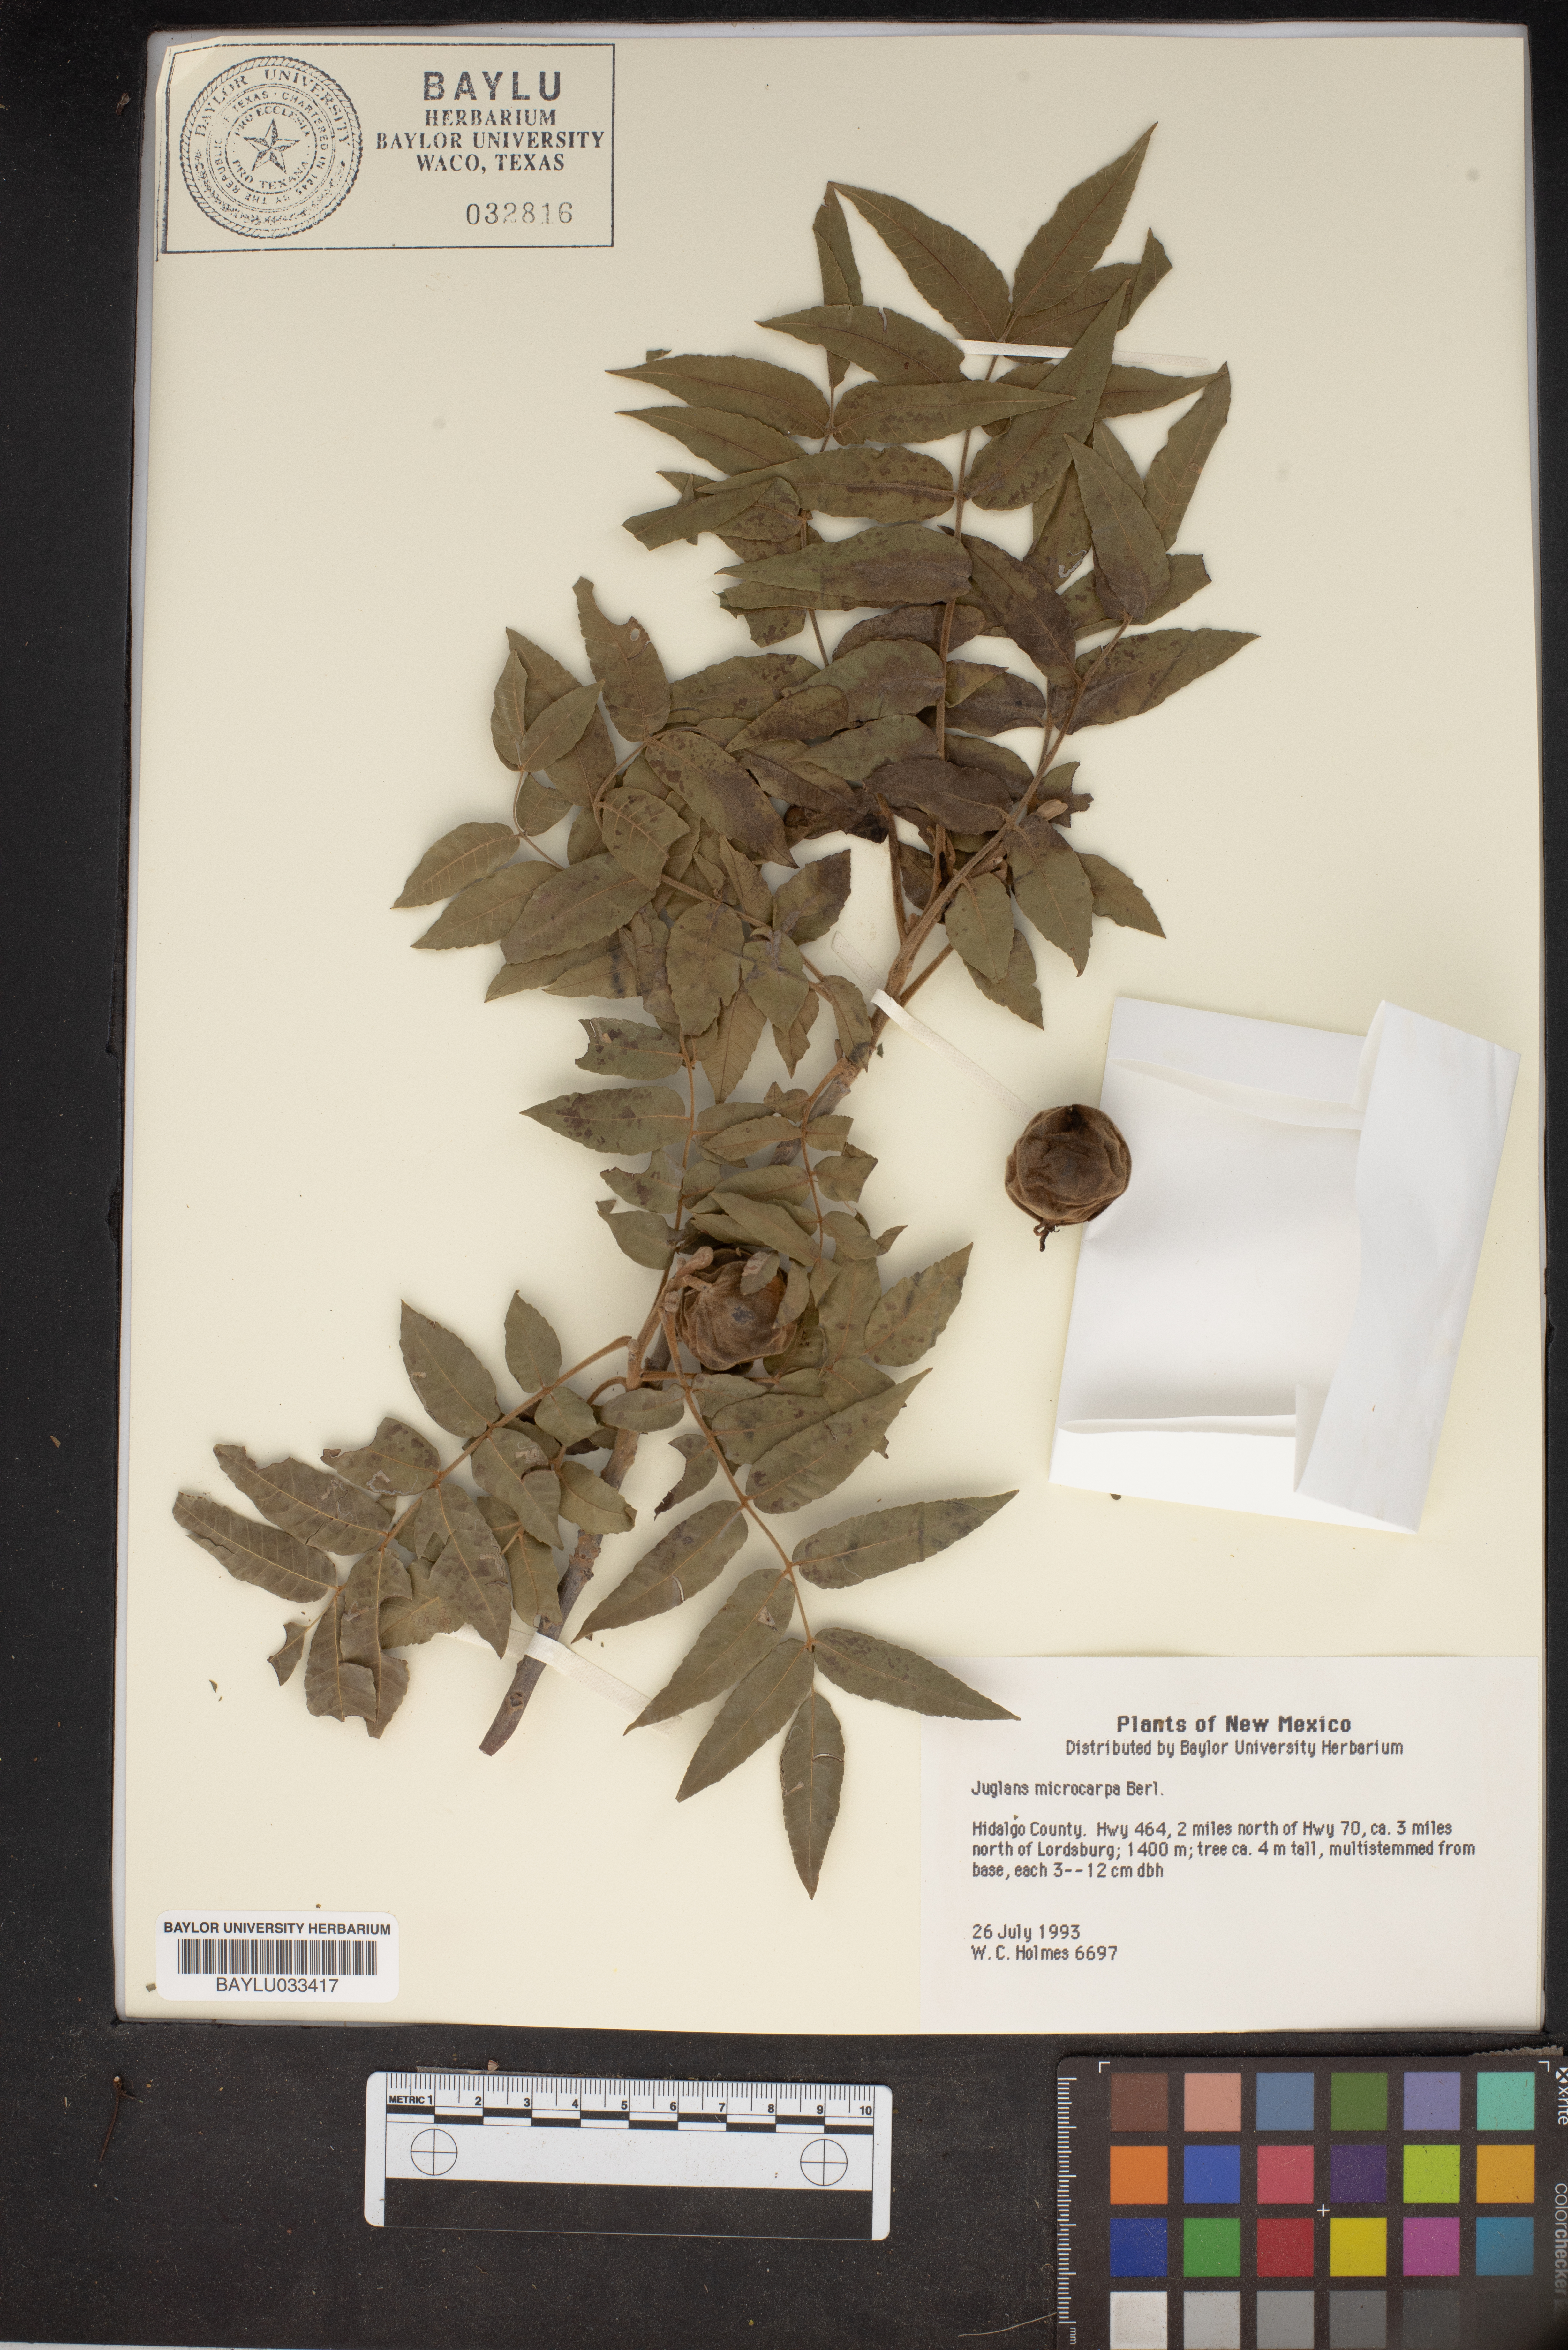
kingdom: Plantae
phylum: Tracheophyta
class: Magnoliopsida
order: Fagales
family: Juglandaceae
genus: Juglans
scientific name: Juglans microcarpa
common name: Texas walnut
